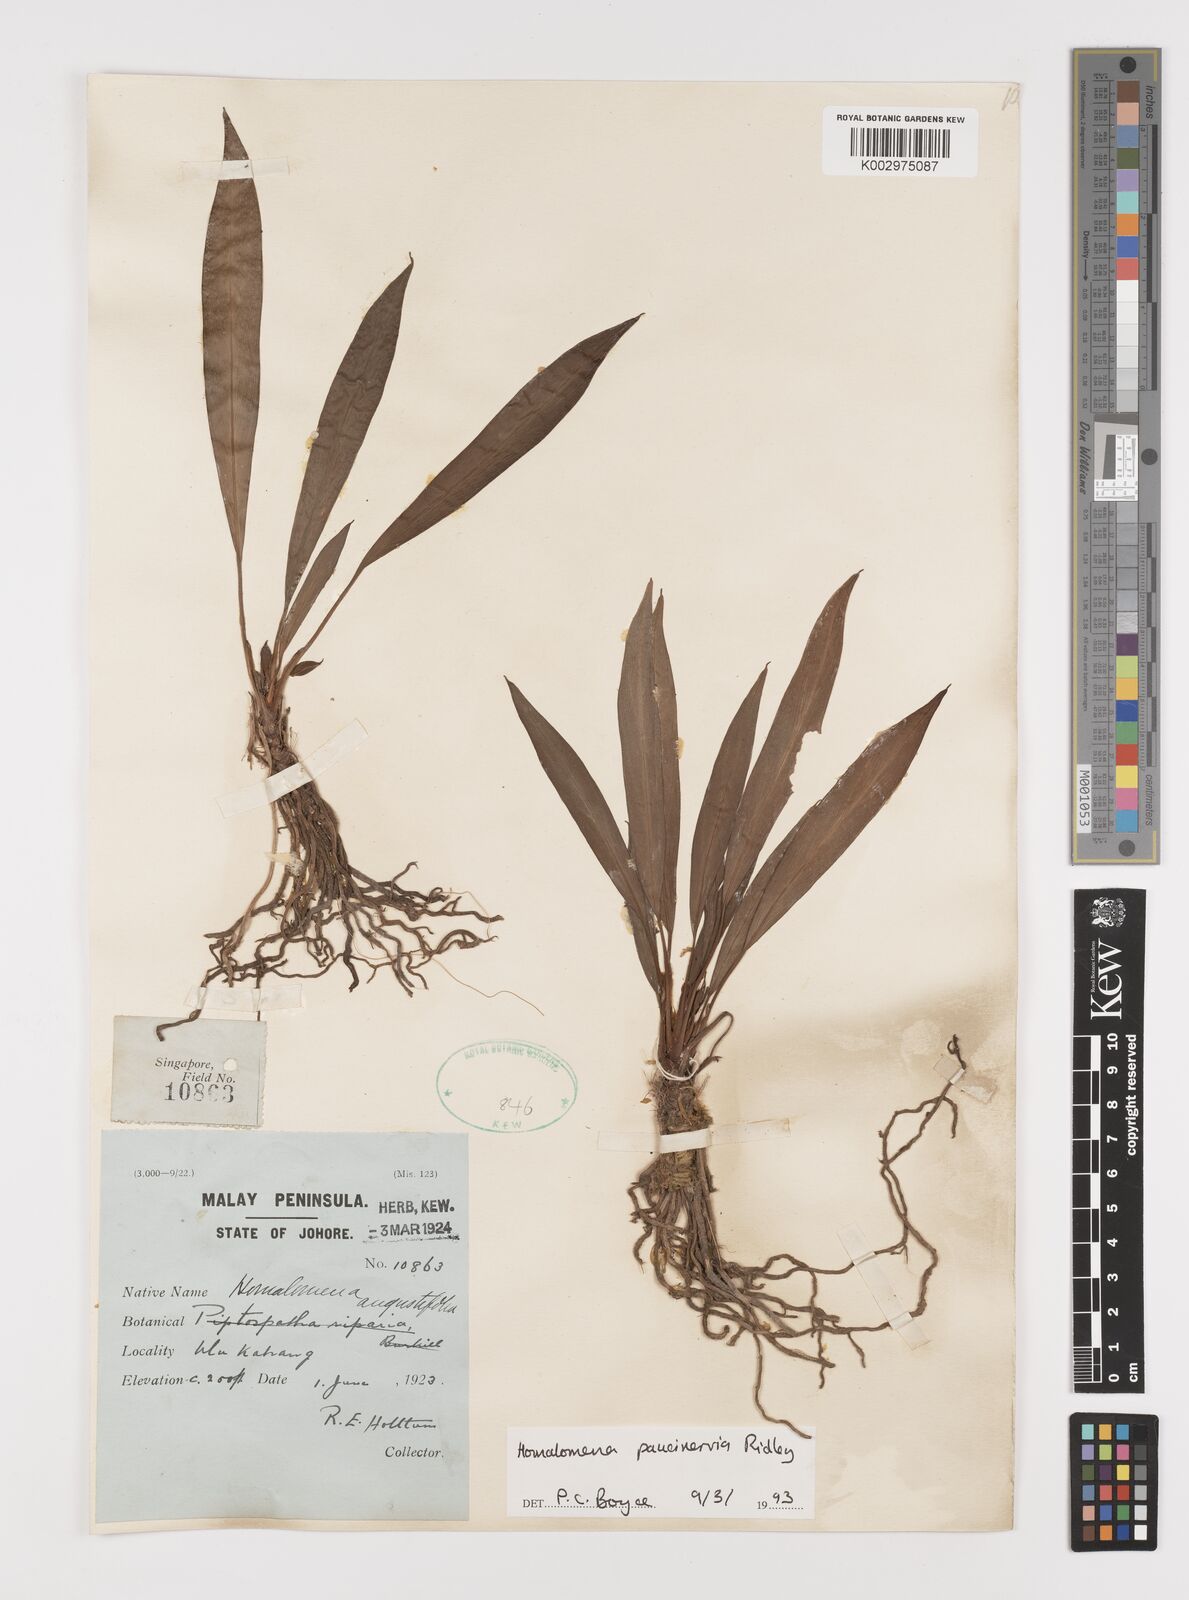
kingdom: Plantae
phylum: Tracheophyta
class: Liliopsida
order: Alismatales
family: Araceae
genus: Homalomena
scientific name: Homalomena consobrina
